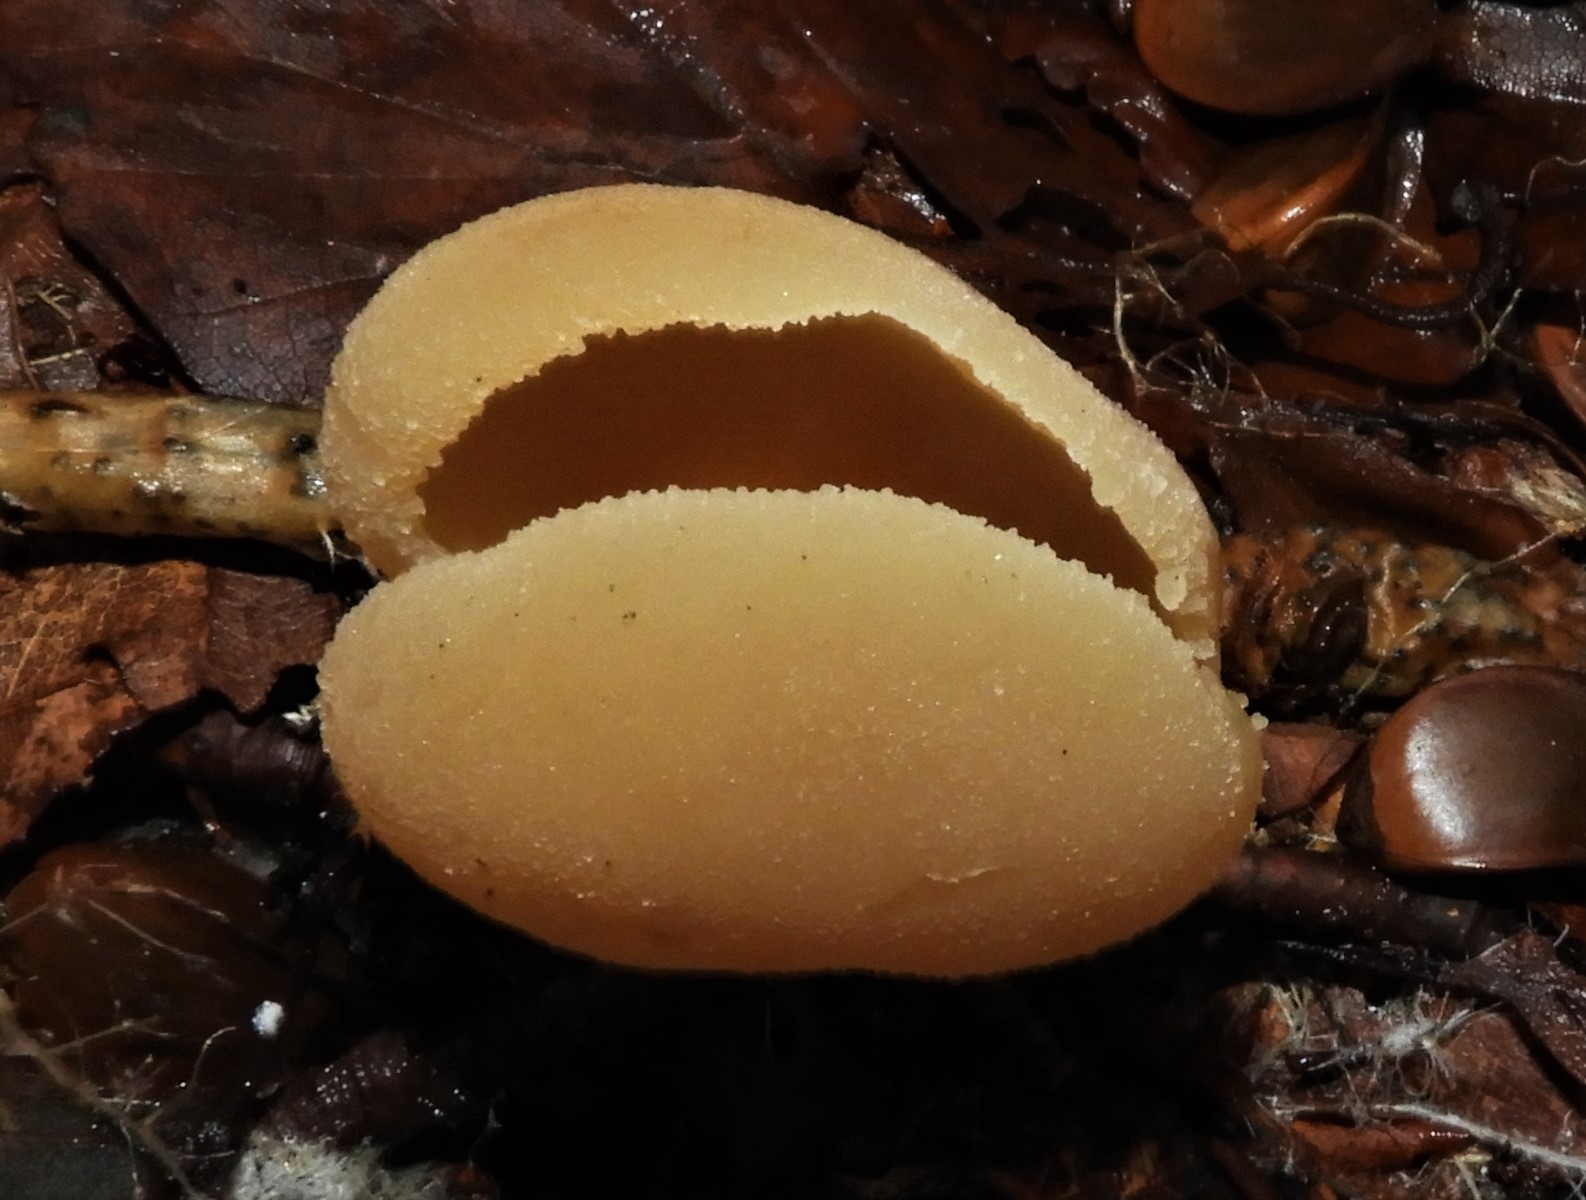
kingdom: Fungi
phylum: Ascomycota
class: Pezizomycetes
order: Pezizales
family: Pezizaceae
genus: Peziza
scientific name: Peziza
